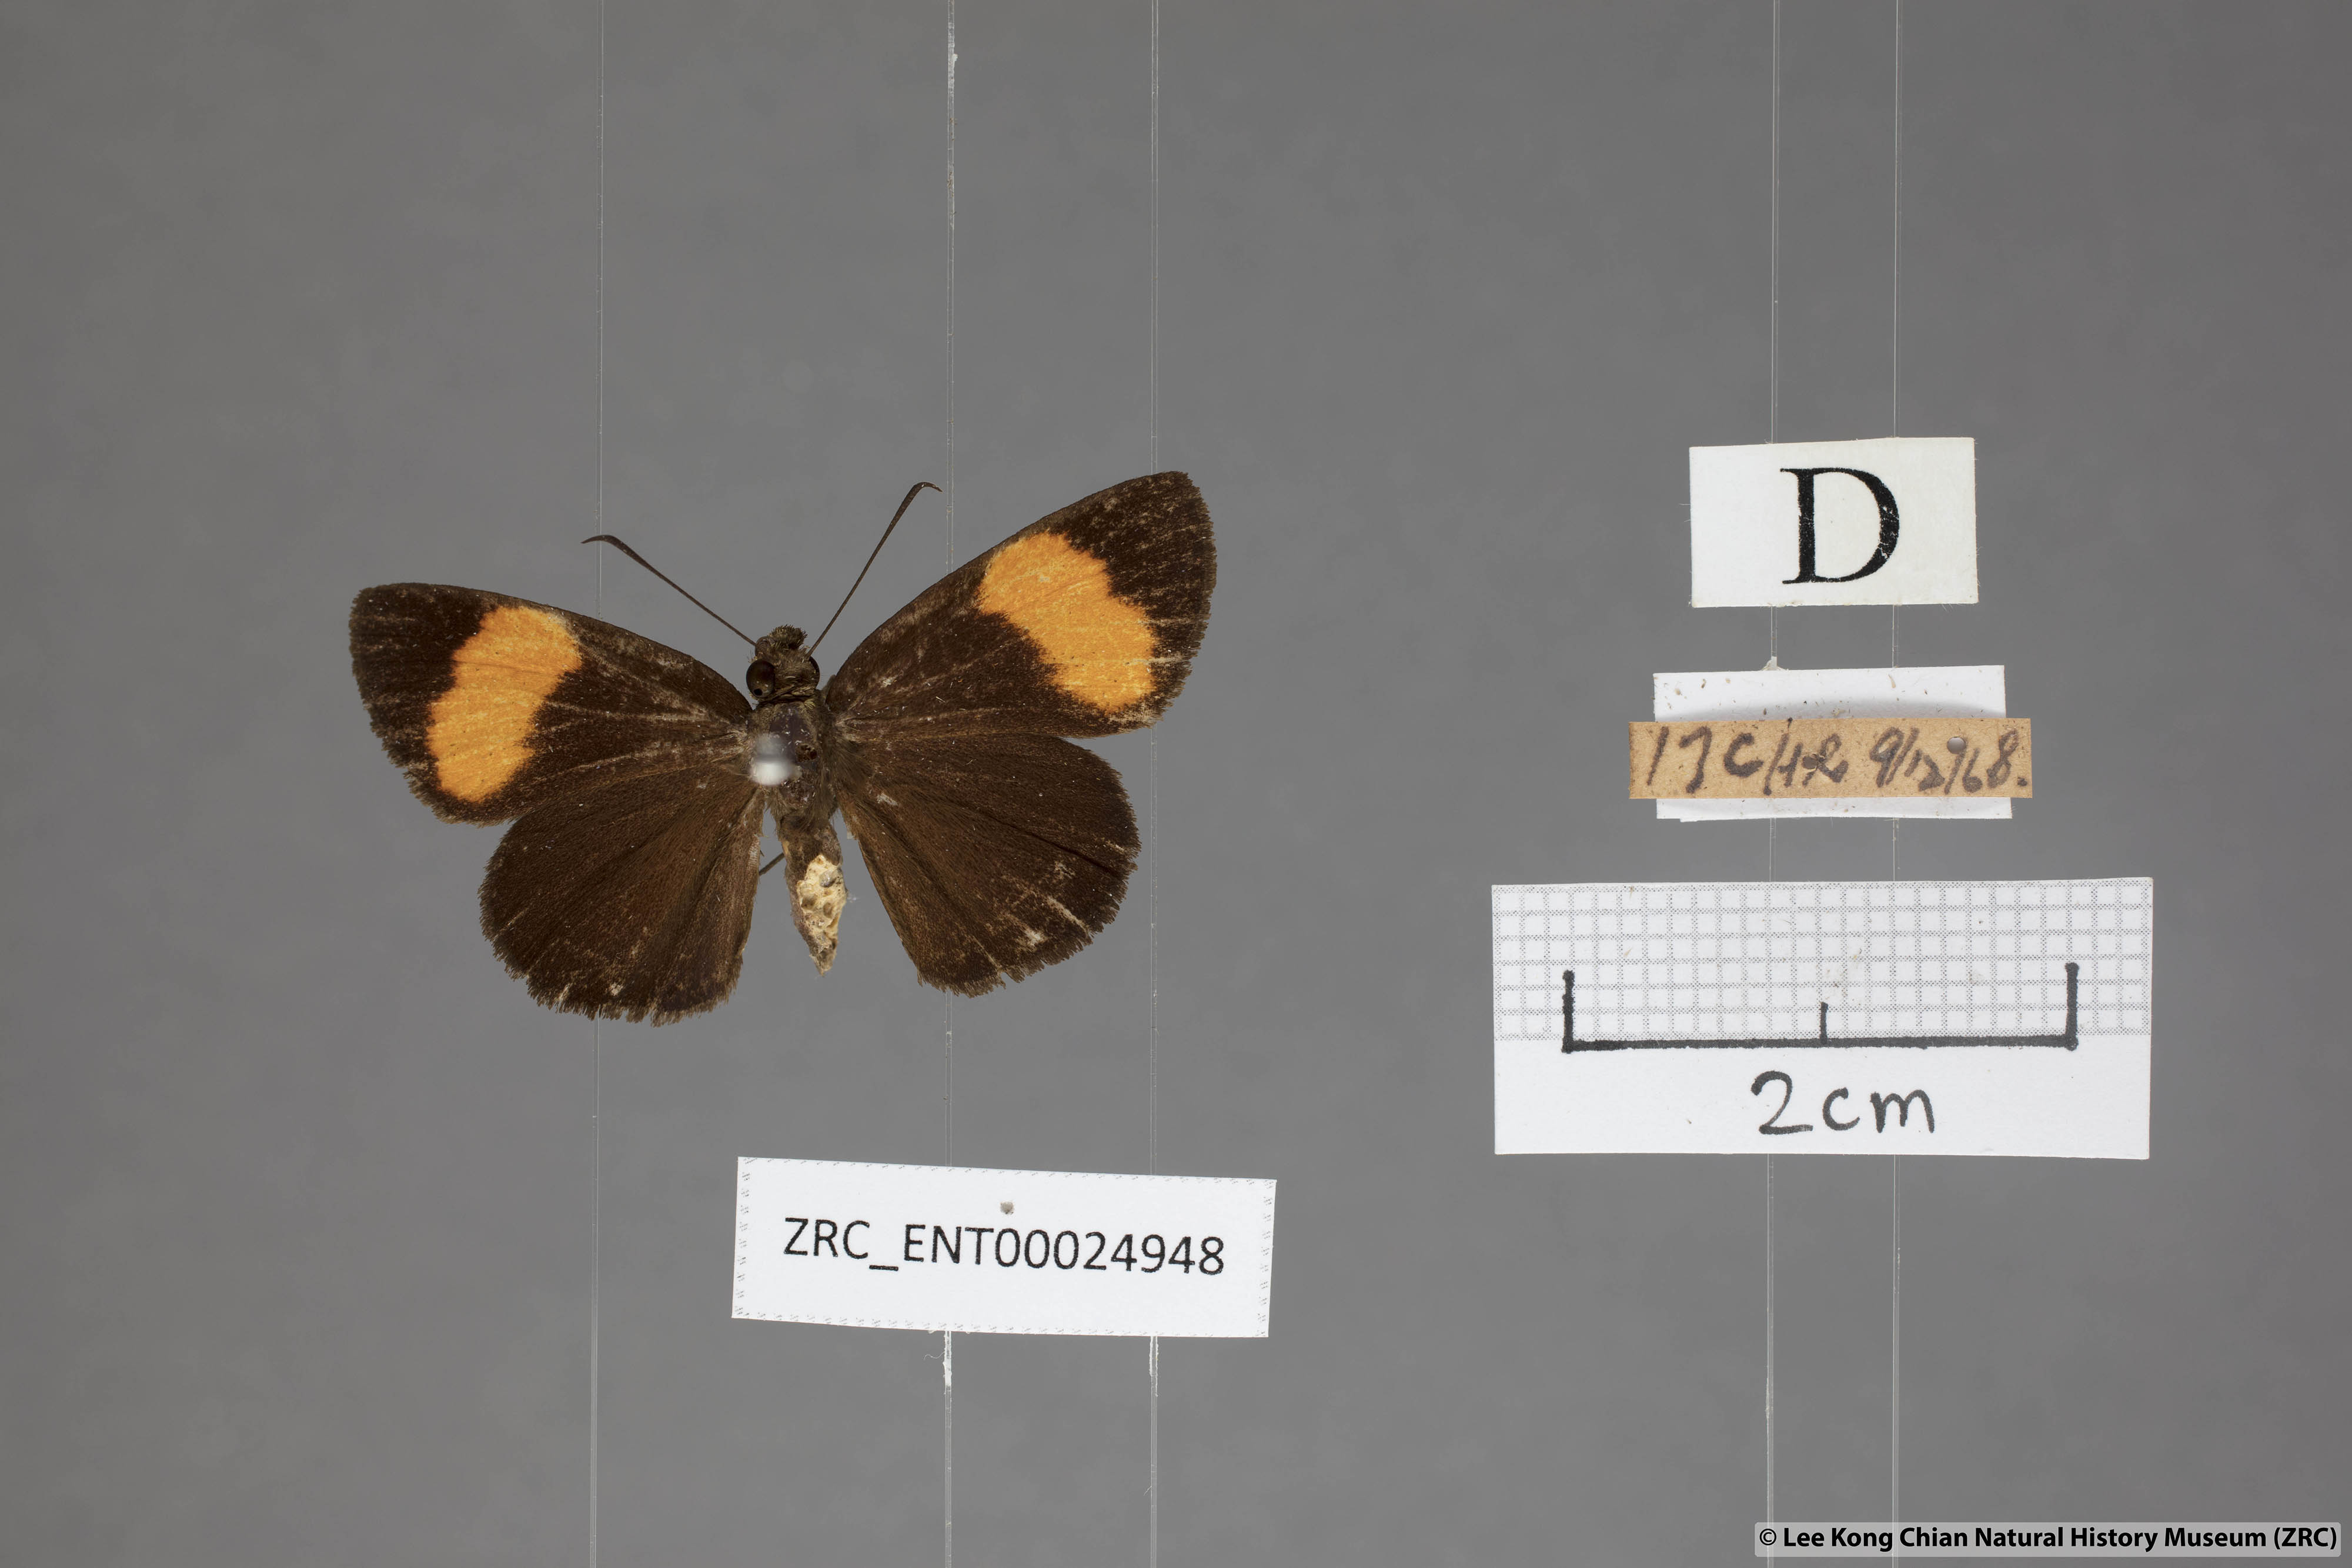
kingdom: Animalia
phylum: Arthropoda
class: Insecta
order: Lepidoptera
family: Hesperiidae
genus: Koruthaialos
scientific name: Koruthaialos sindu
